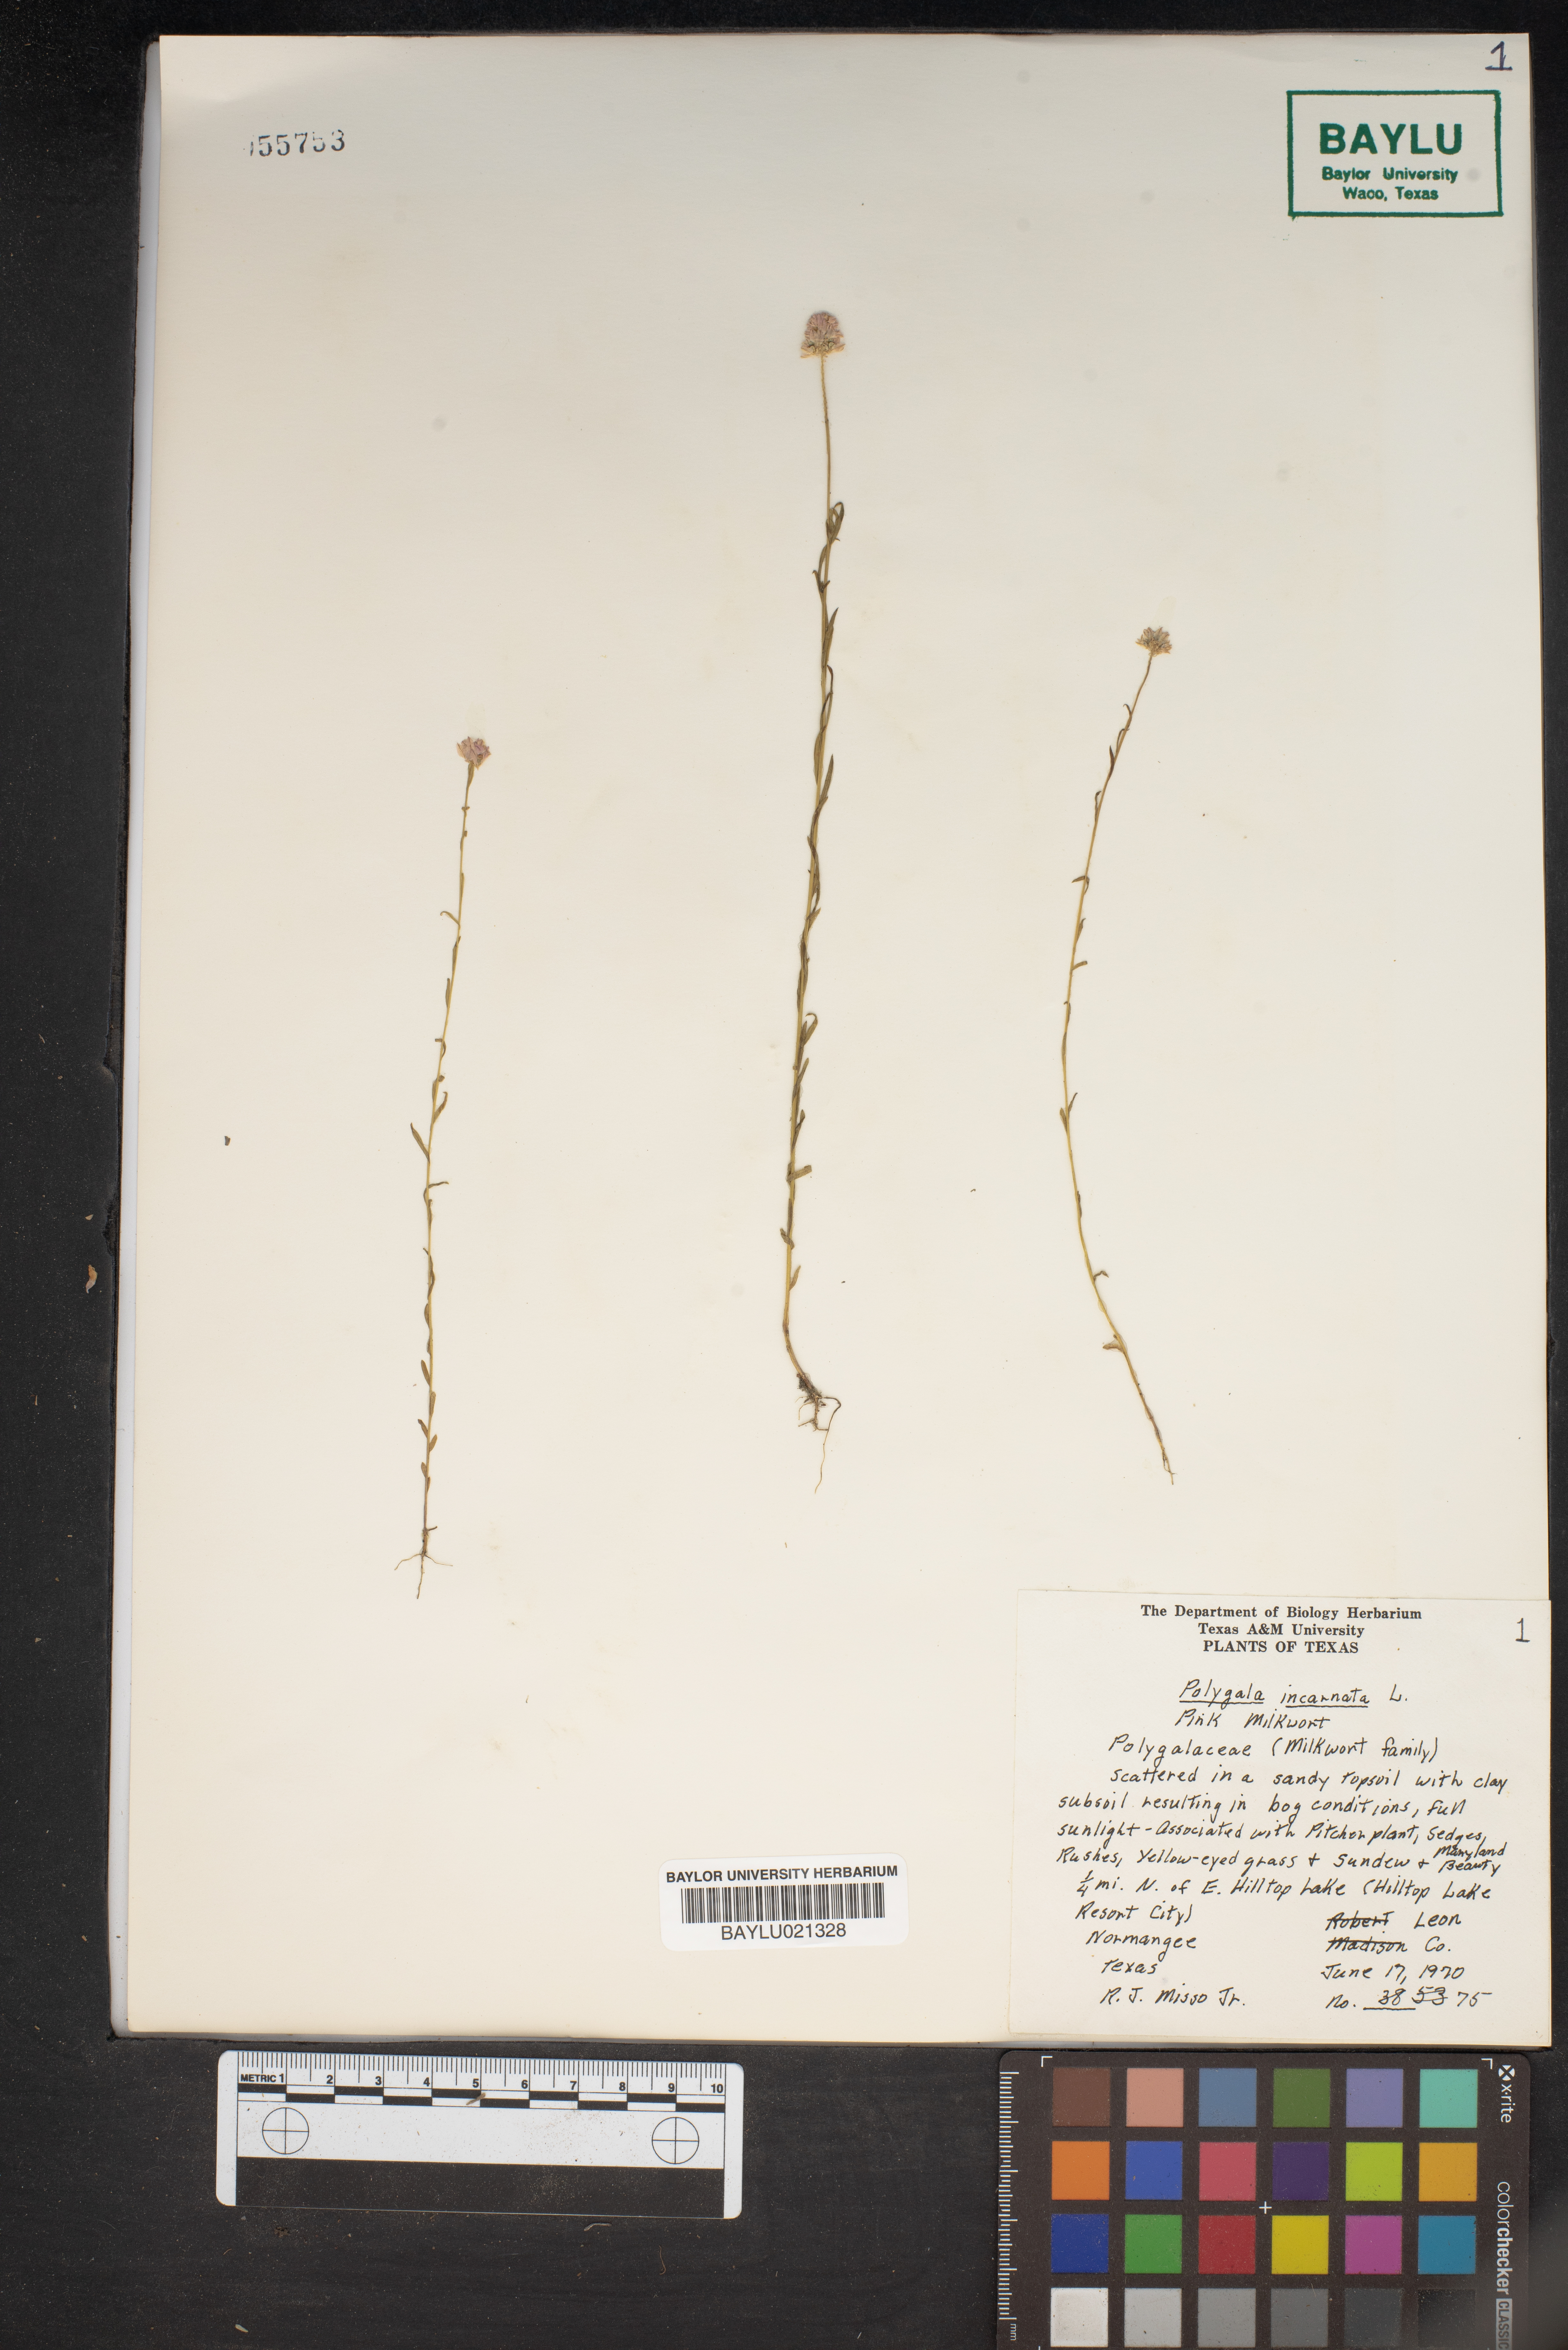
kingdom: Plantae
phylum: Tracheophyta
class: Magnoliopsida
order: Fabales
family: Polygalaceae
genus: Polygala
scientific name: Polygala incarnata
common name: Pink milkwort
